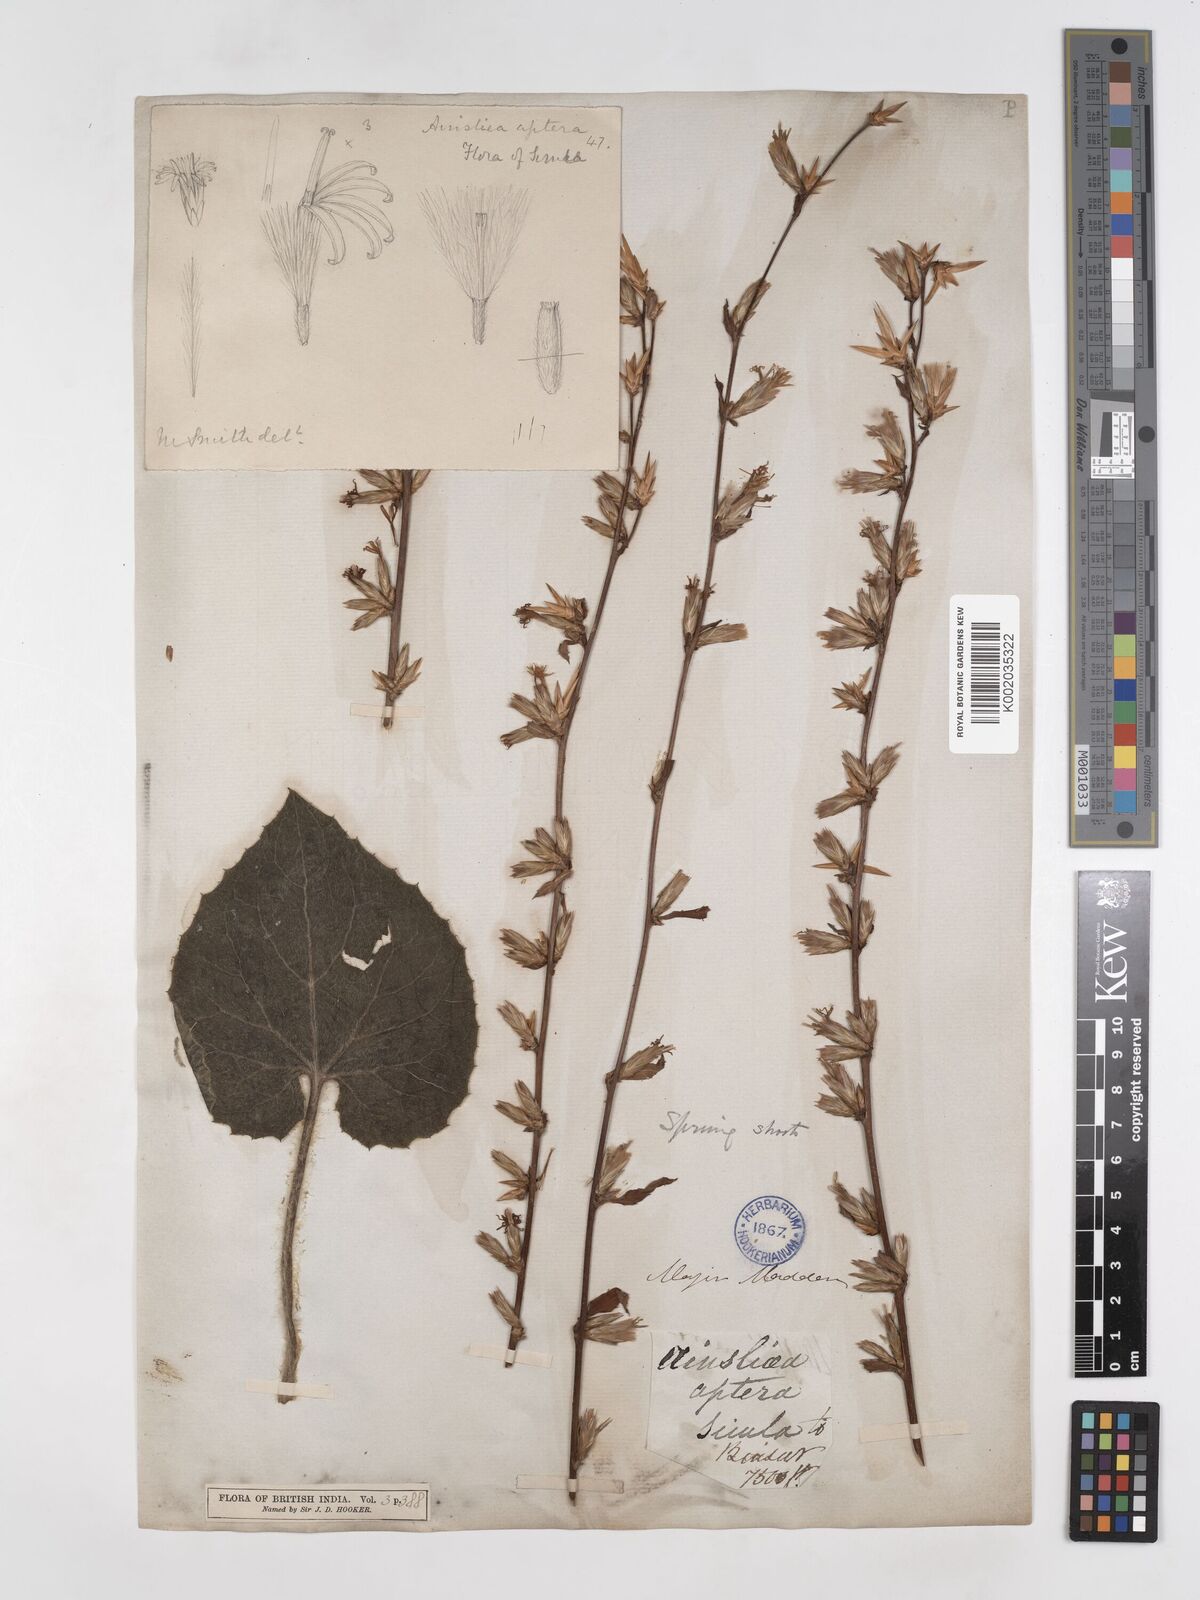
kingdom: Plantae
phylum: Tracheophyta
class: Magnoliopsida
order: Asterales
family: Asteraceae
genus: Ainsliaea
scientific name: Ainsliaea aptera
